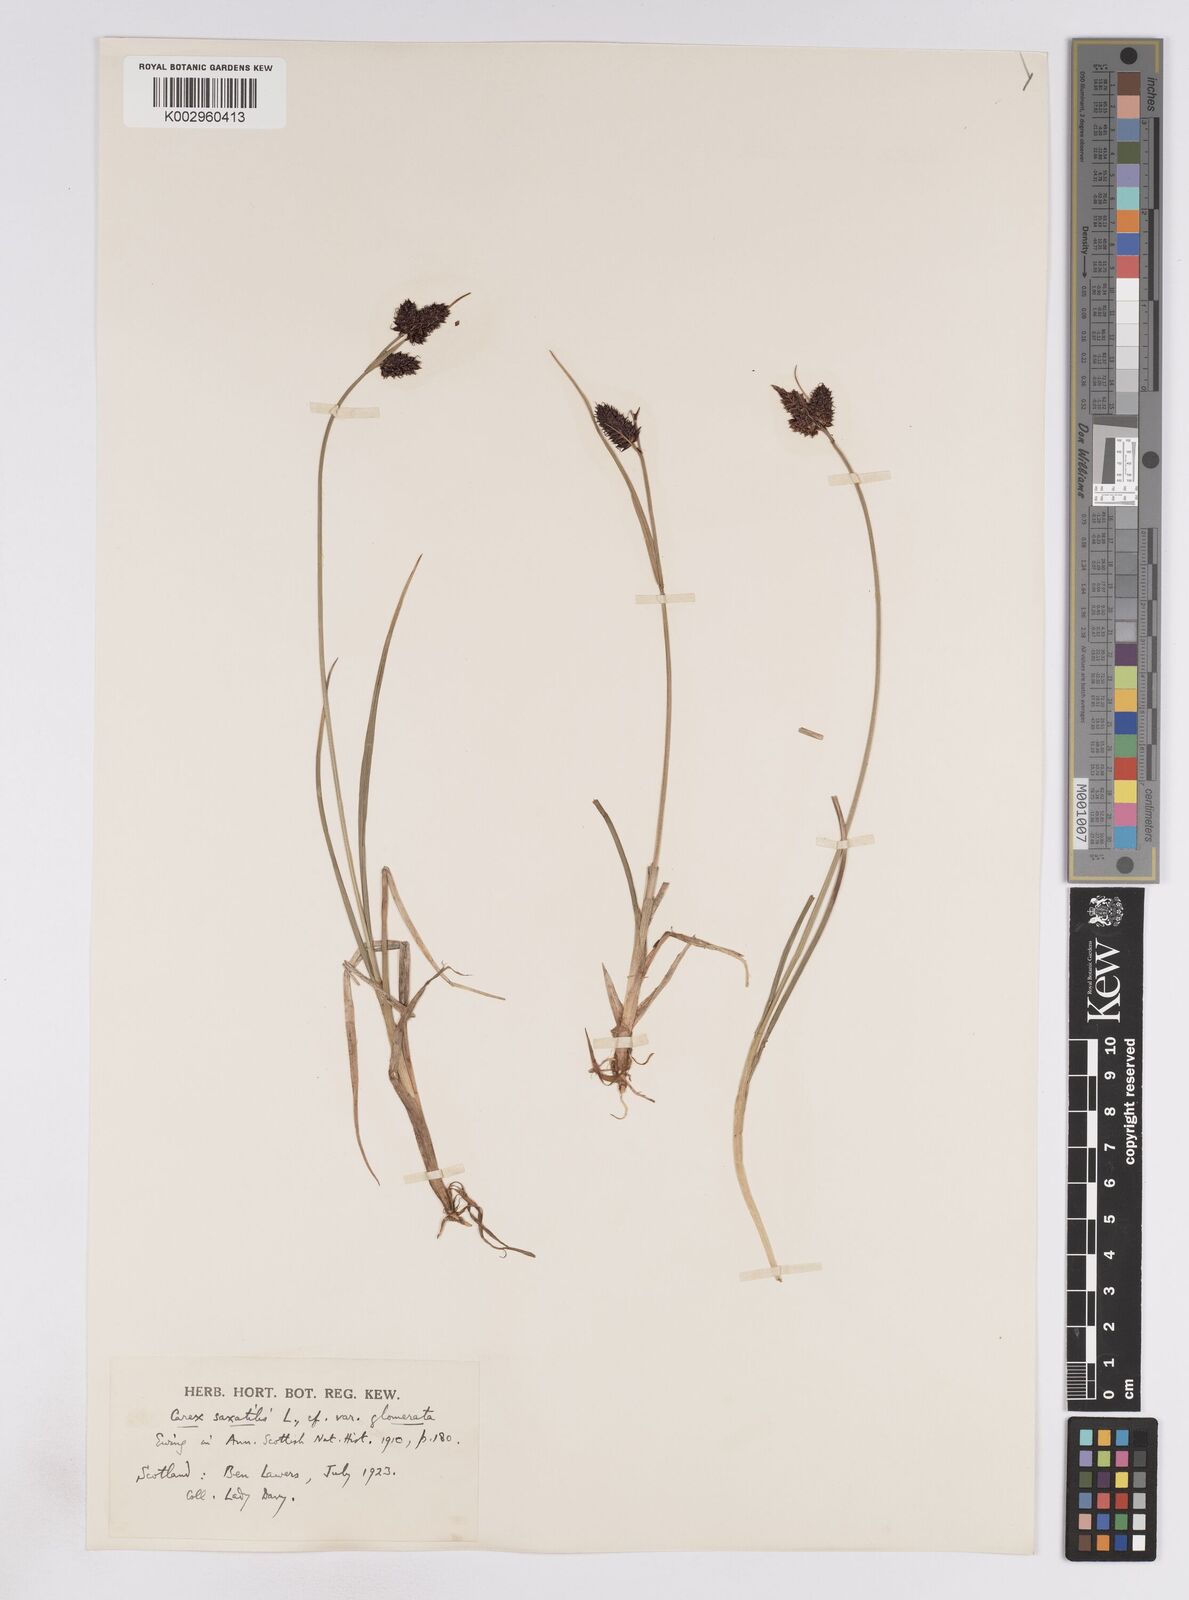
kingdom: Plantae
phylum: Tracheophyta
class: Liliopsida
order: Poales
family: Cyperaceae
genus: Carex
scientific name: Carex saxatilis
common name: Russet sedge
